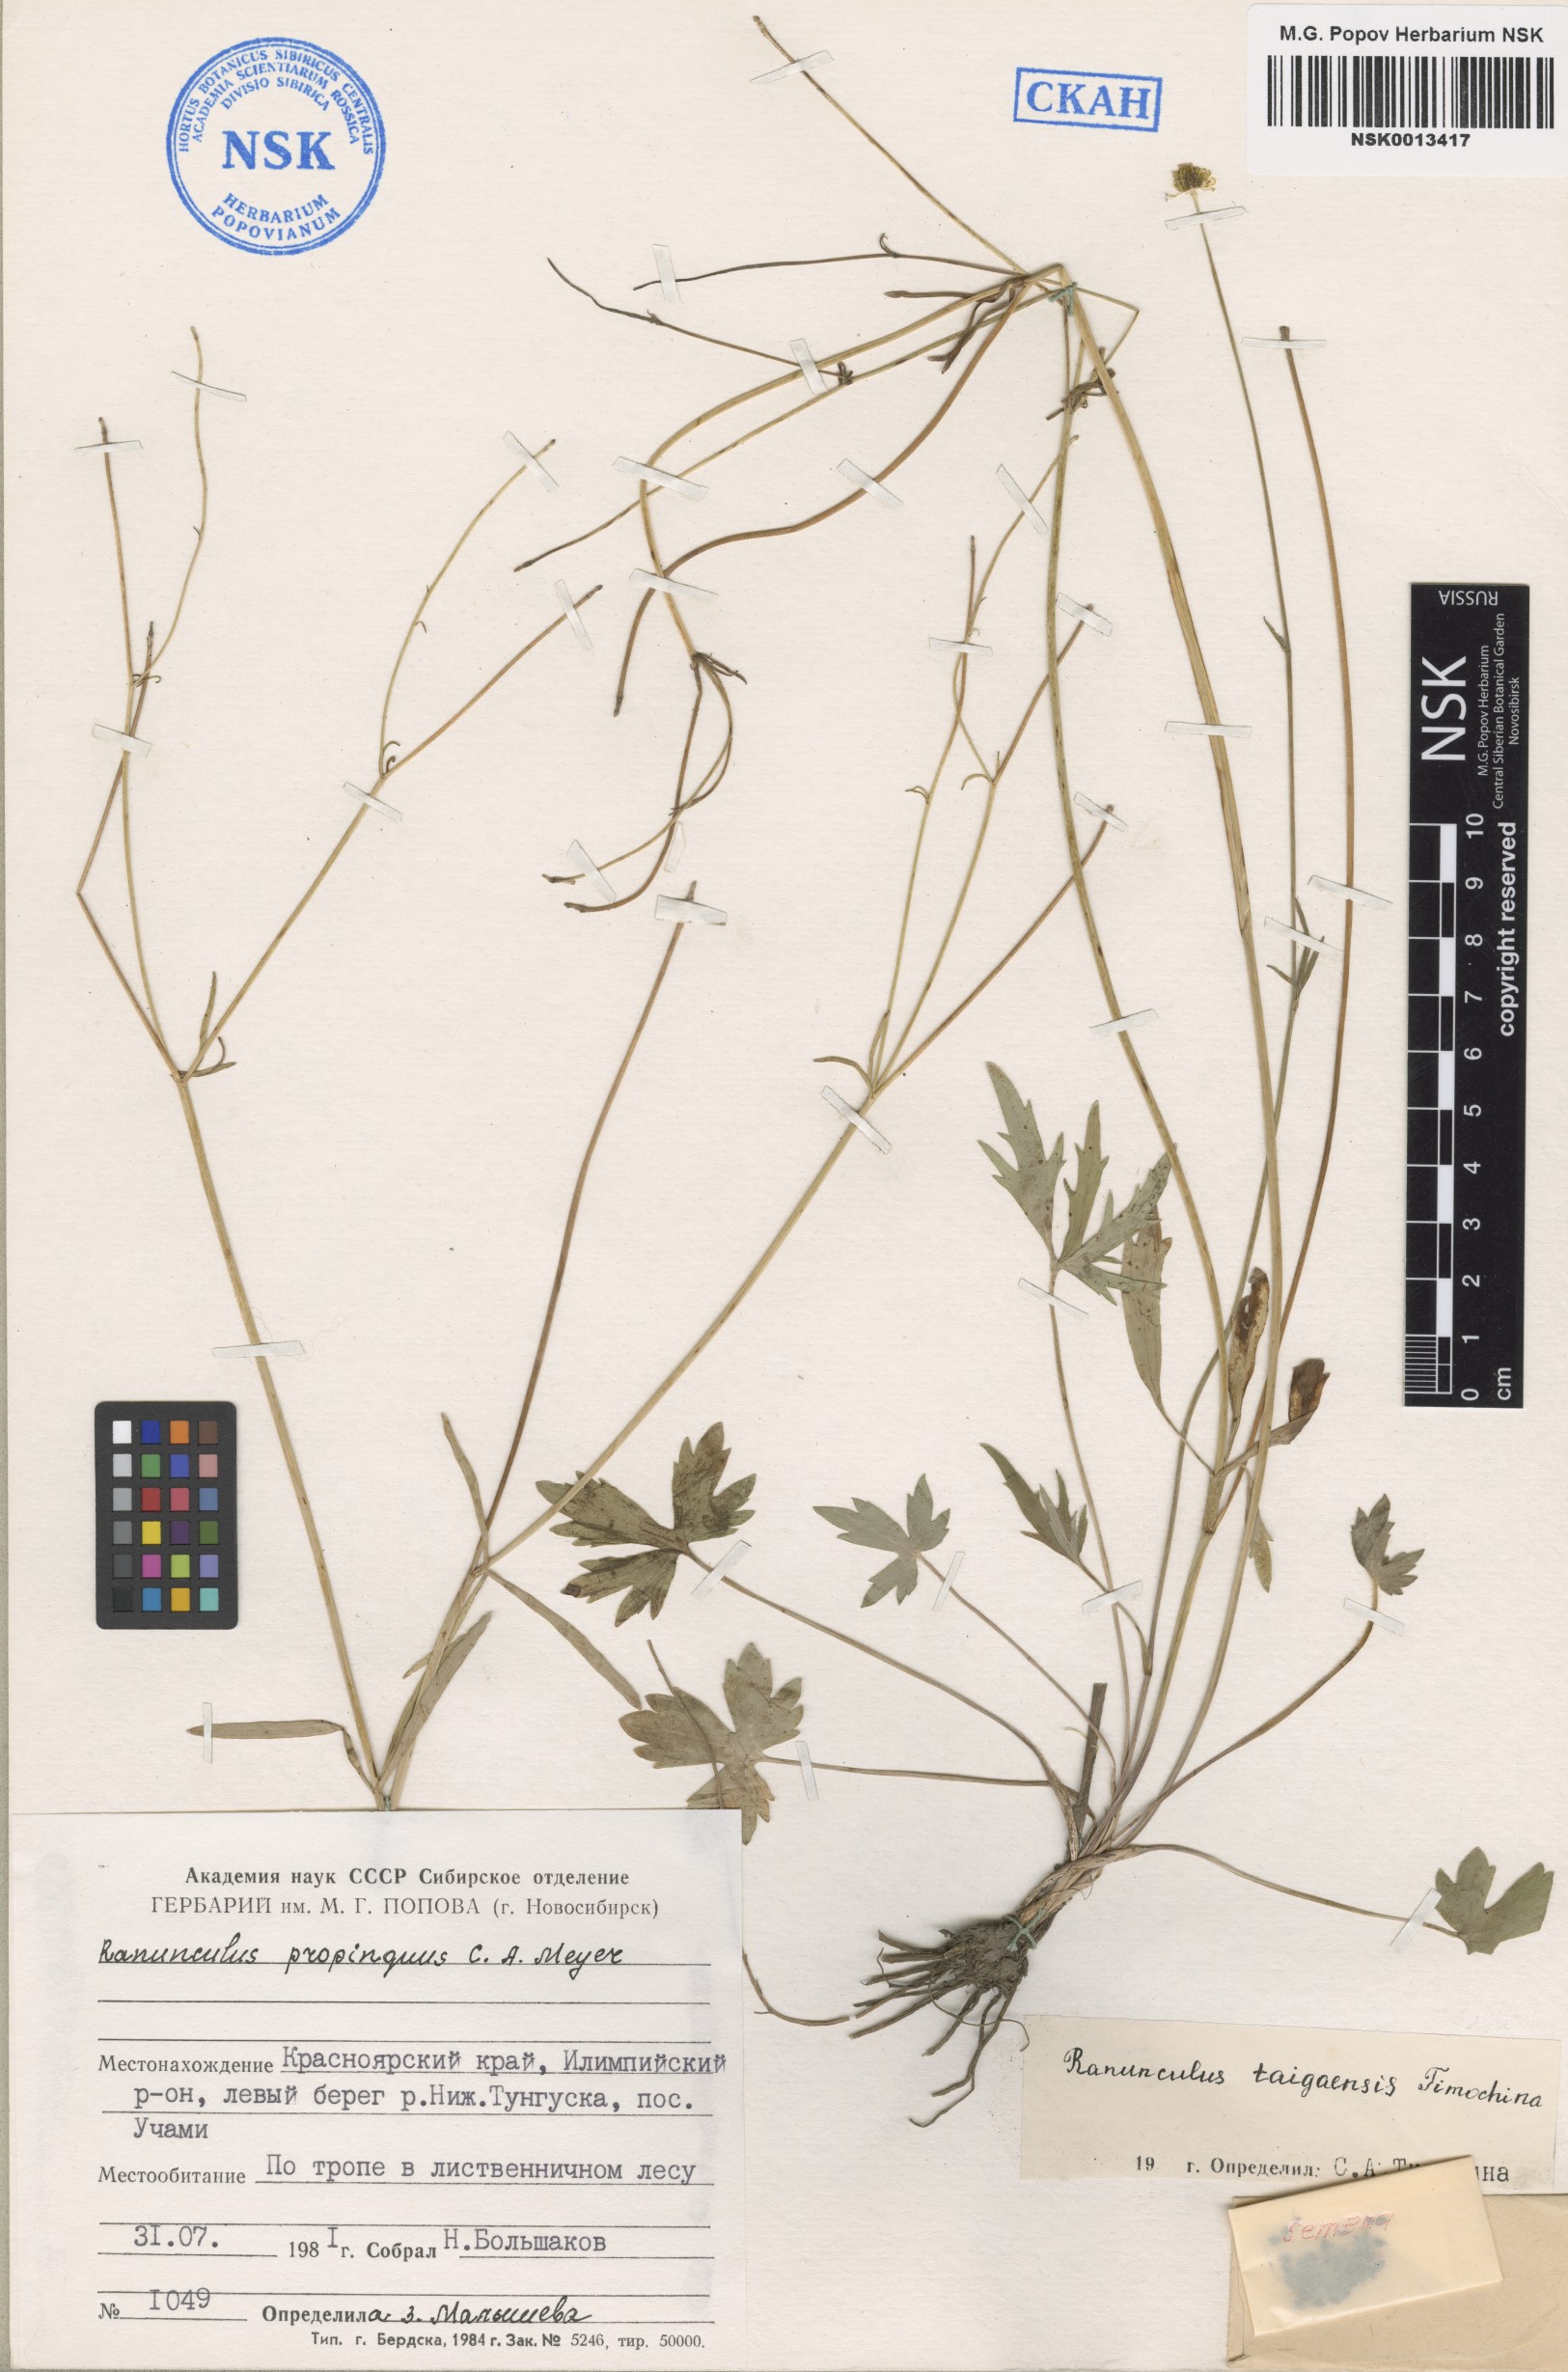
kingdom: Plantae
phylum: Tracheophyta
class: Magnoliopsida
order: Ranunculales
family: Ranunculaceae
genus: Ranunculus
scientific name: Ranunculus taigaensis
